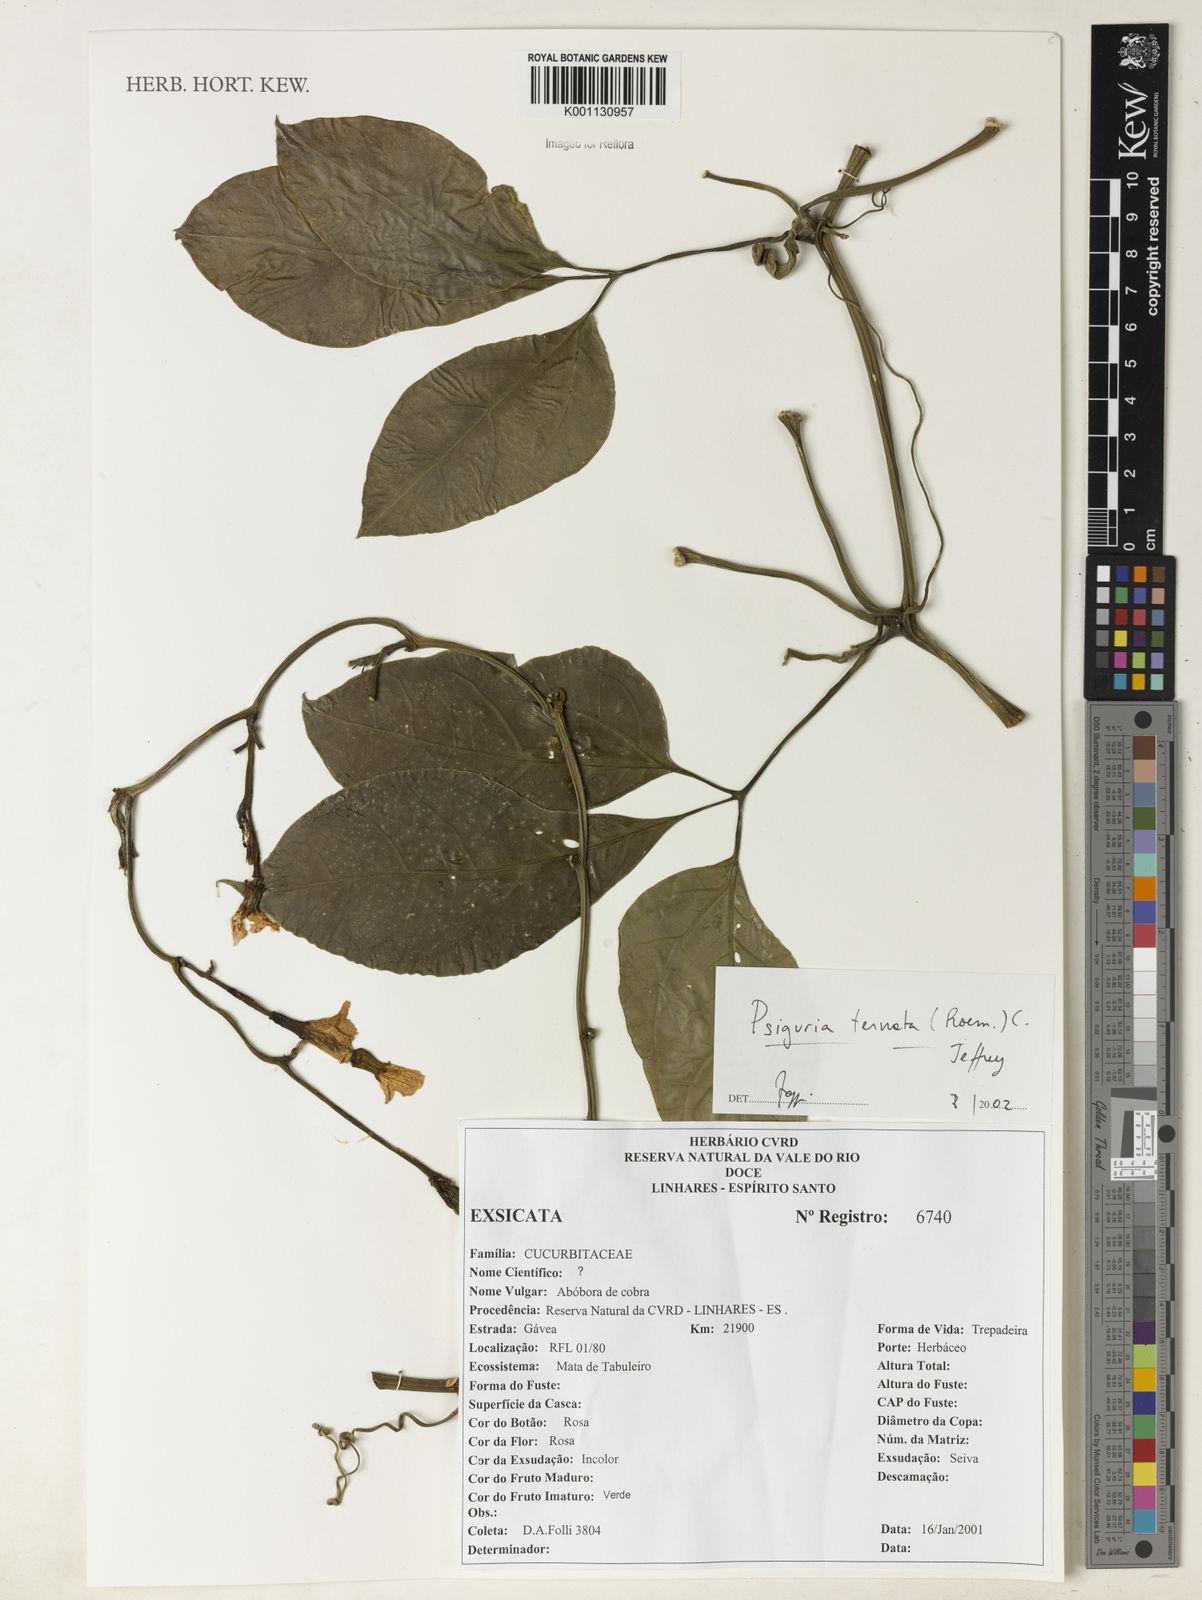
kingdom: Plantae
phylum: Tracheophyta
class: Magnoliopsida
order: Cucurbitales
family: Cucurbitaceae
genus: Psiguria
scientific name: Psiguria ternata
